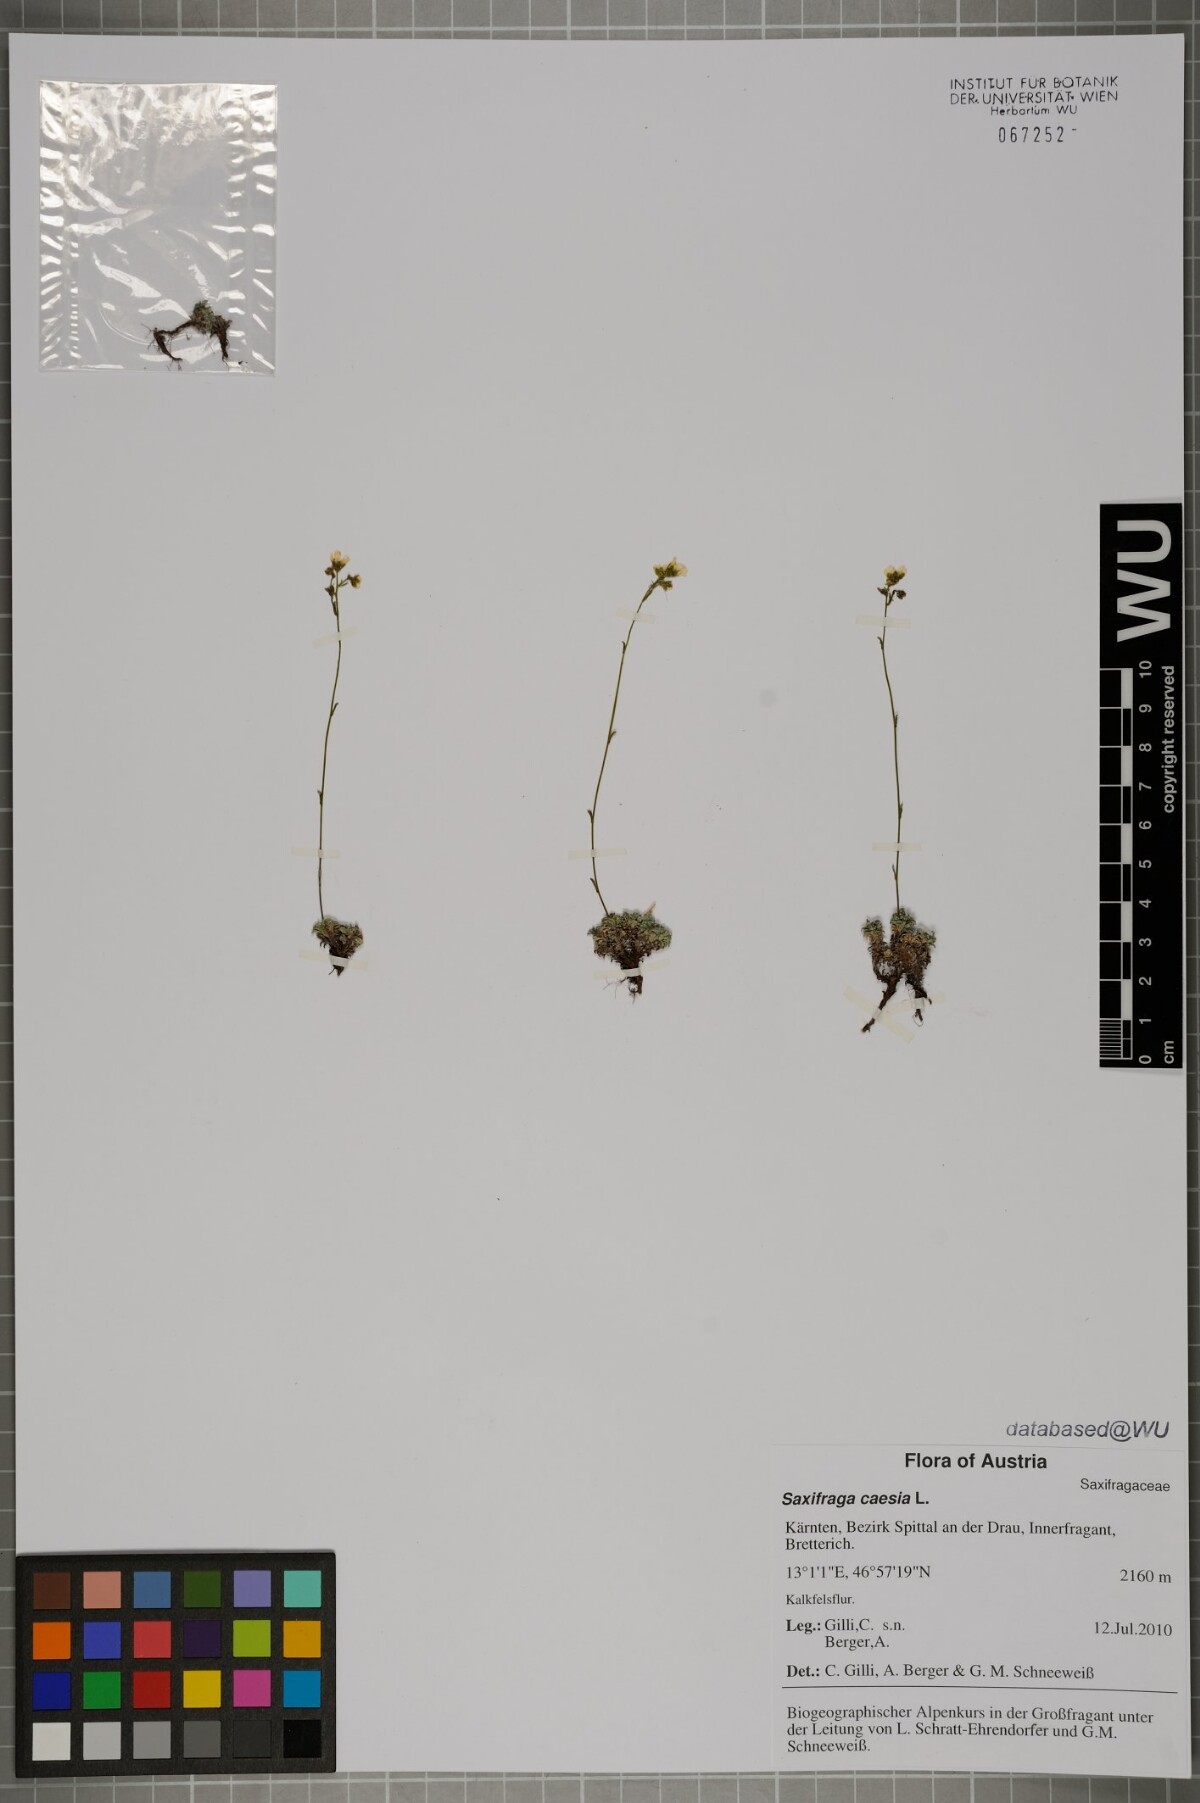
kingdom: Plantae
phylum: Tracheophyta
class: Magnoliopsida
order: Saxifragales
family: Saxifragaceae
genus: Saxifraga
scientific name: Saxifraga caesia
